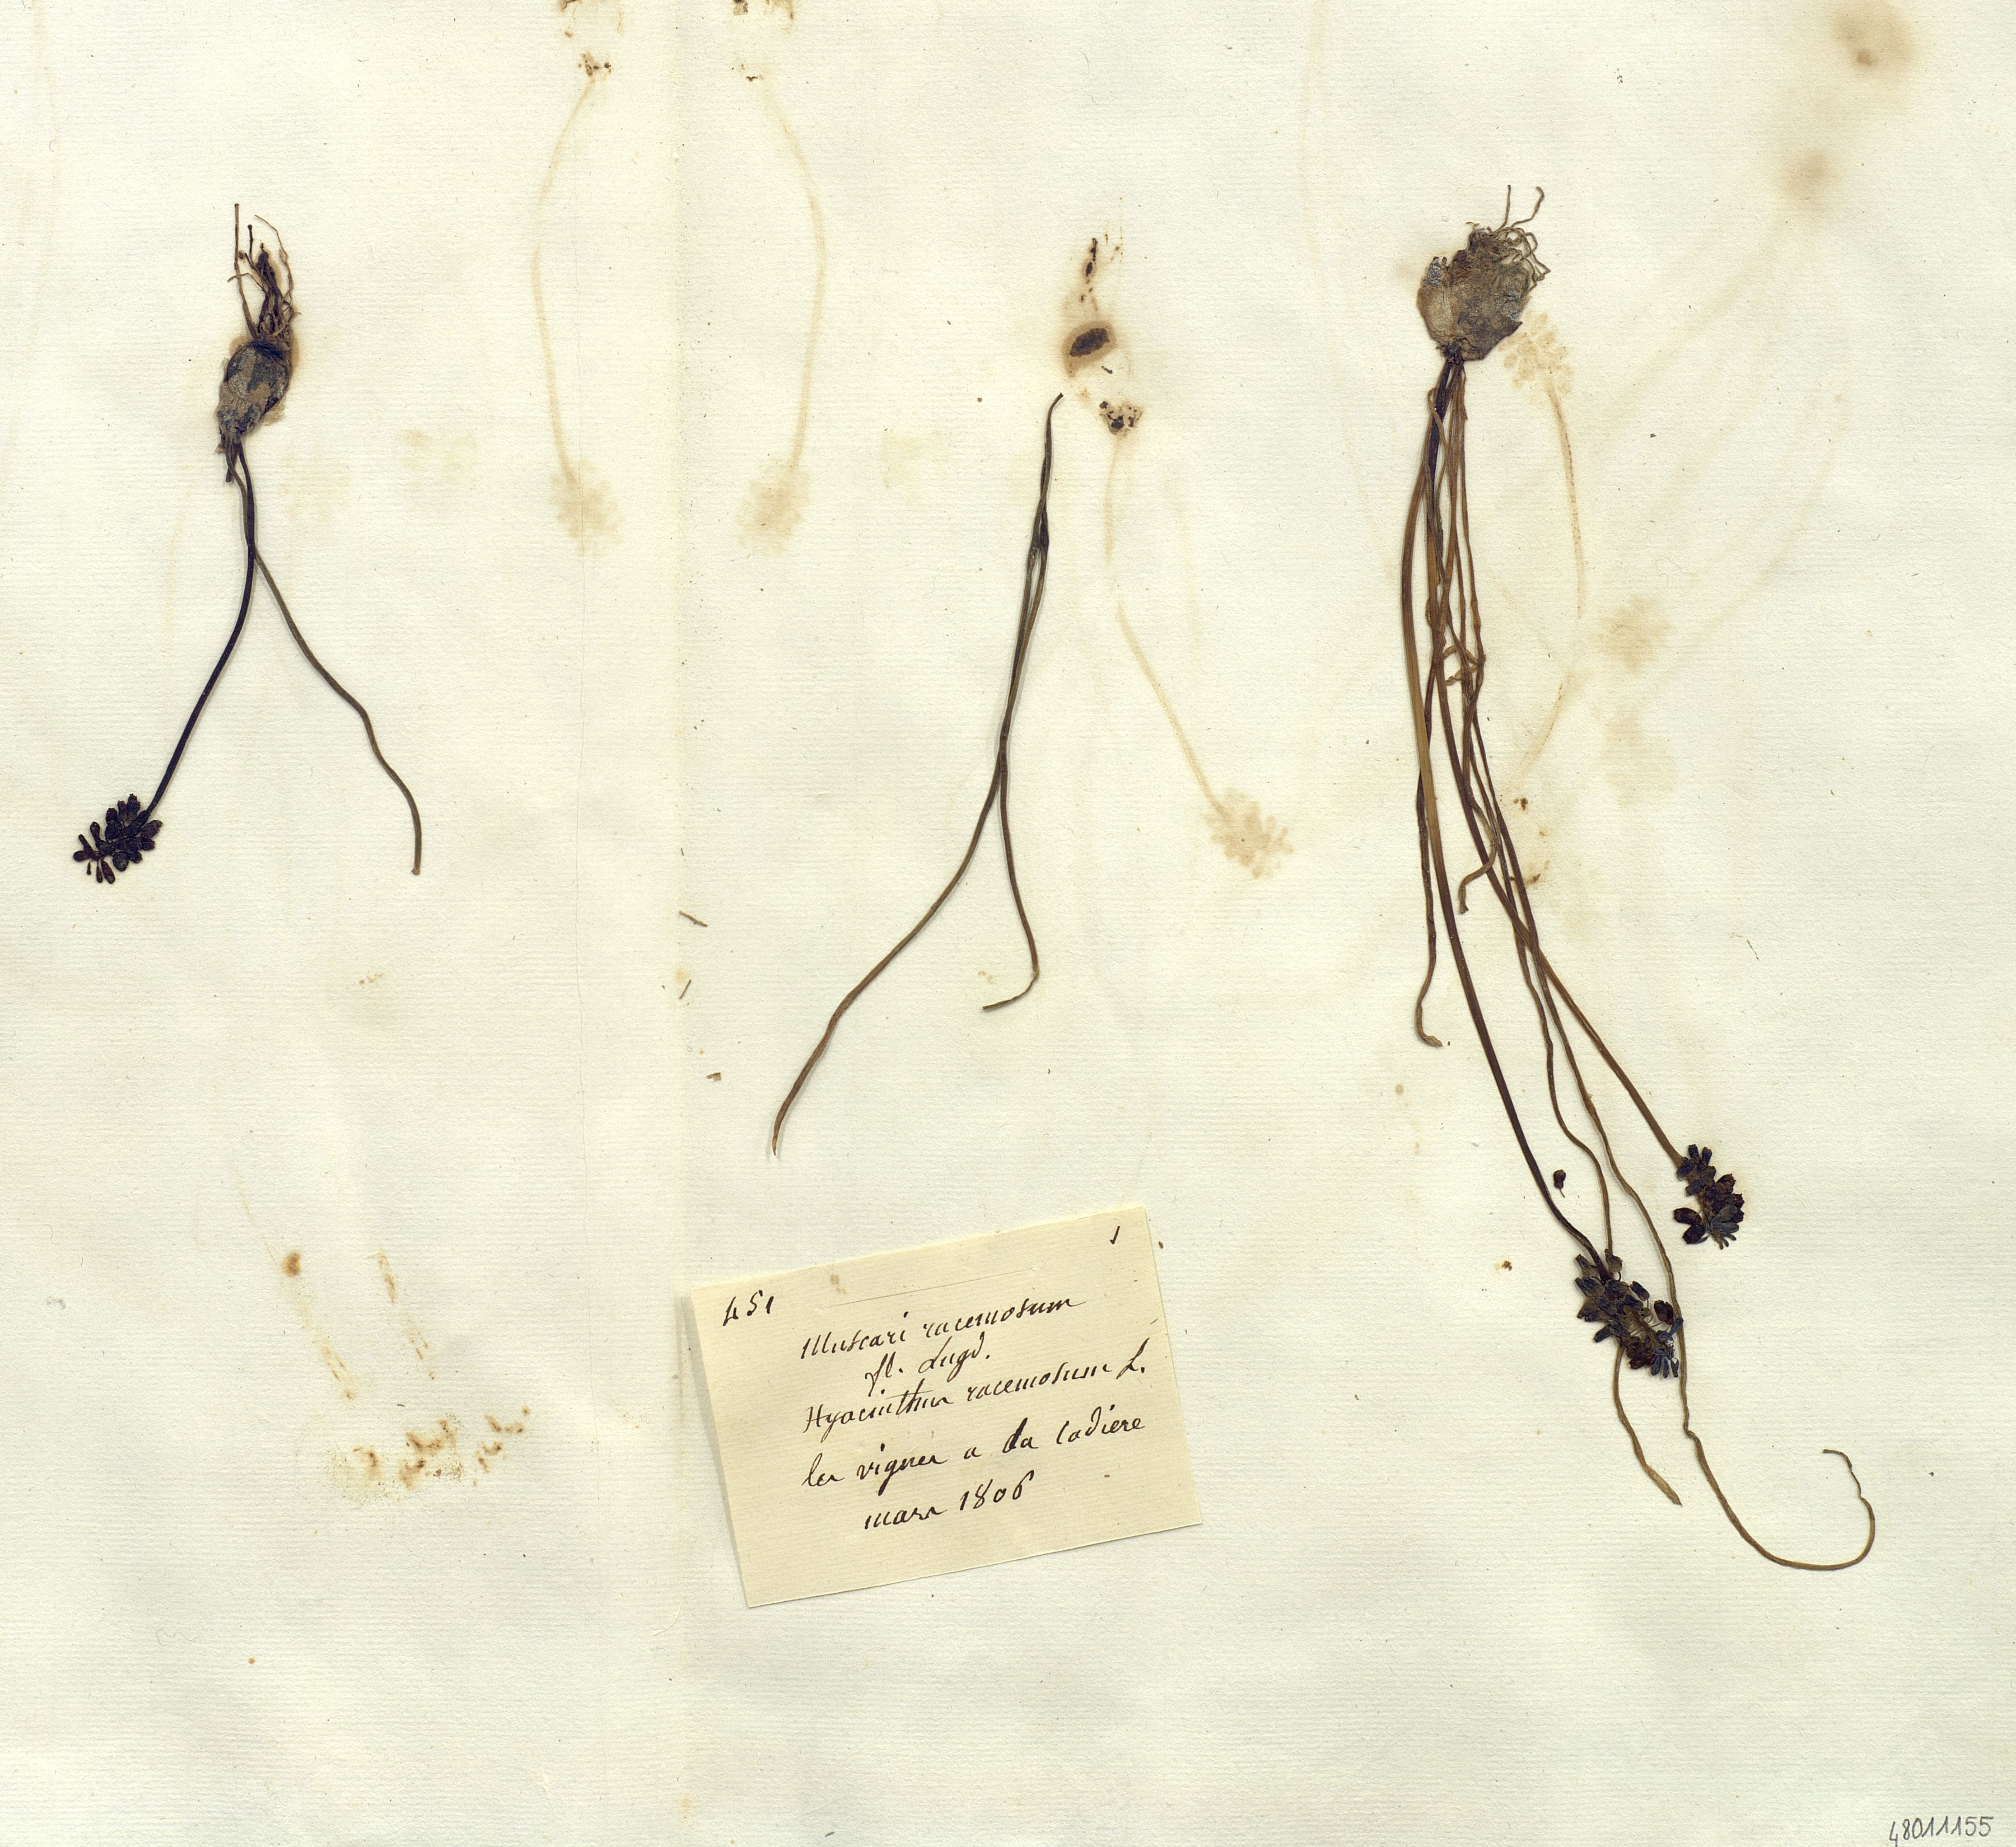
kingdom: Plantae
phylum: Tracheophyta
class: Liliopsida
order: Liliales
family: Liliaceae
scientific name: Liliaceae
